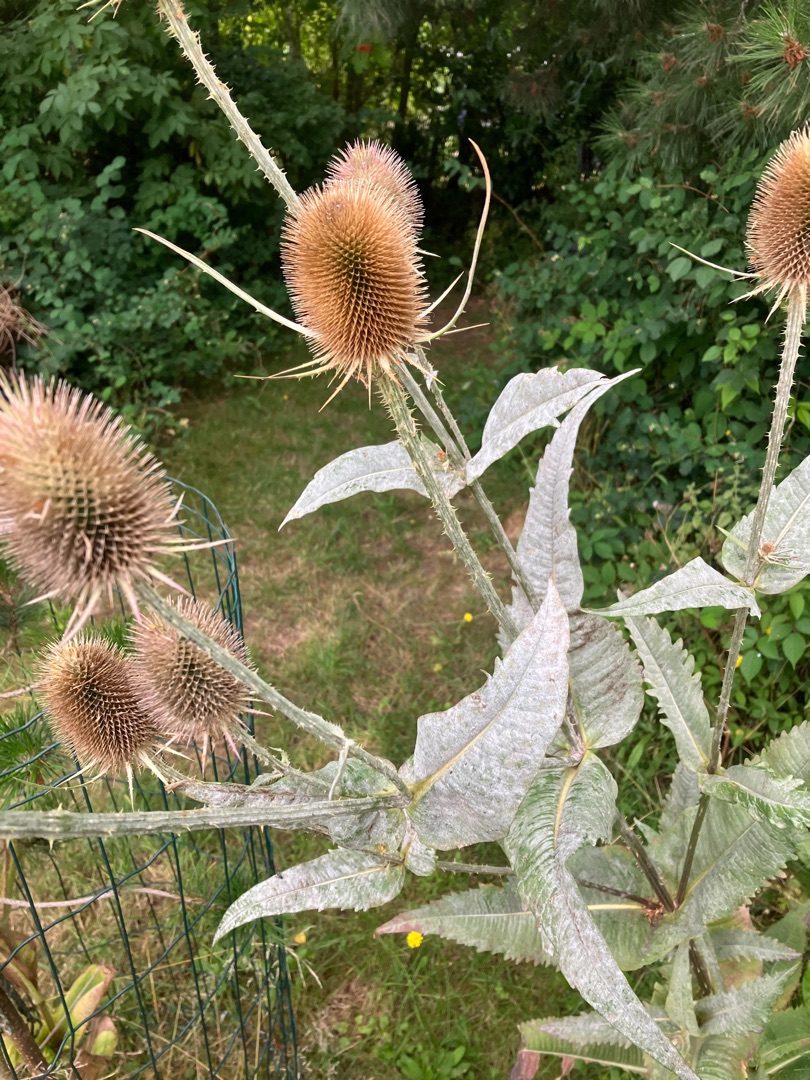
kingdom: Plantae
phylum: Tracheophyta
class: Magnoliopsida
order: Dipsacales
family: Caprifoliaceae
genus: Dipsacus
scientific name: Dipsacus fullonum
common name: Gærde-kartebolle
